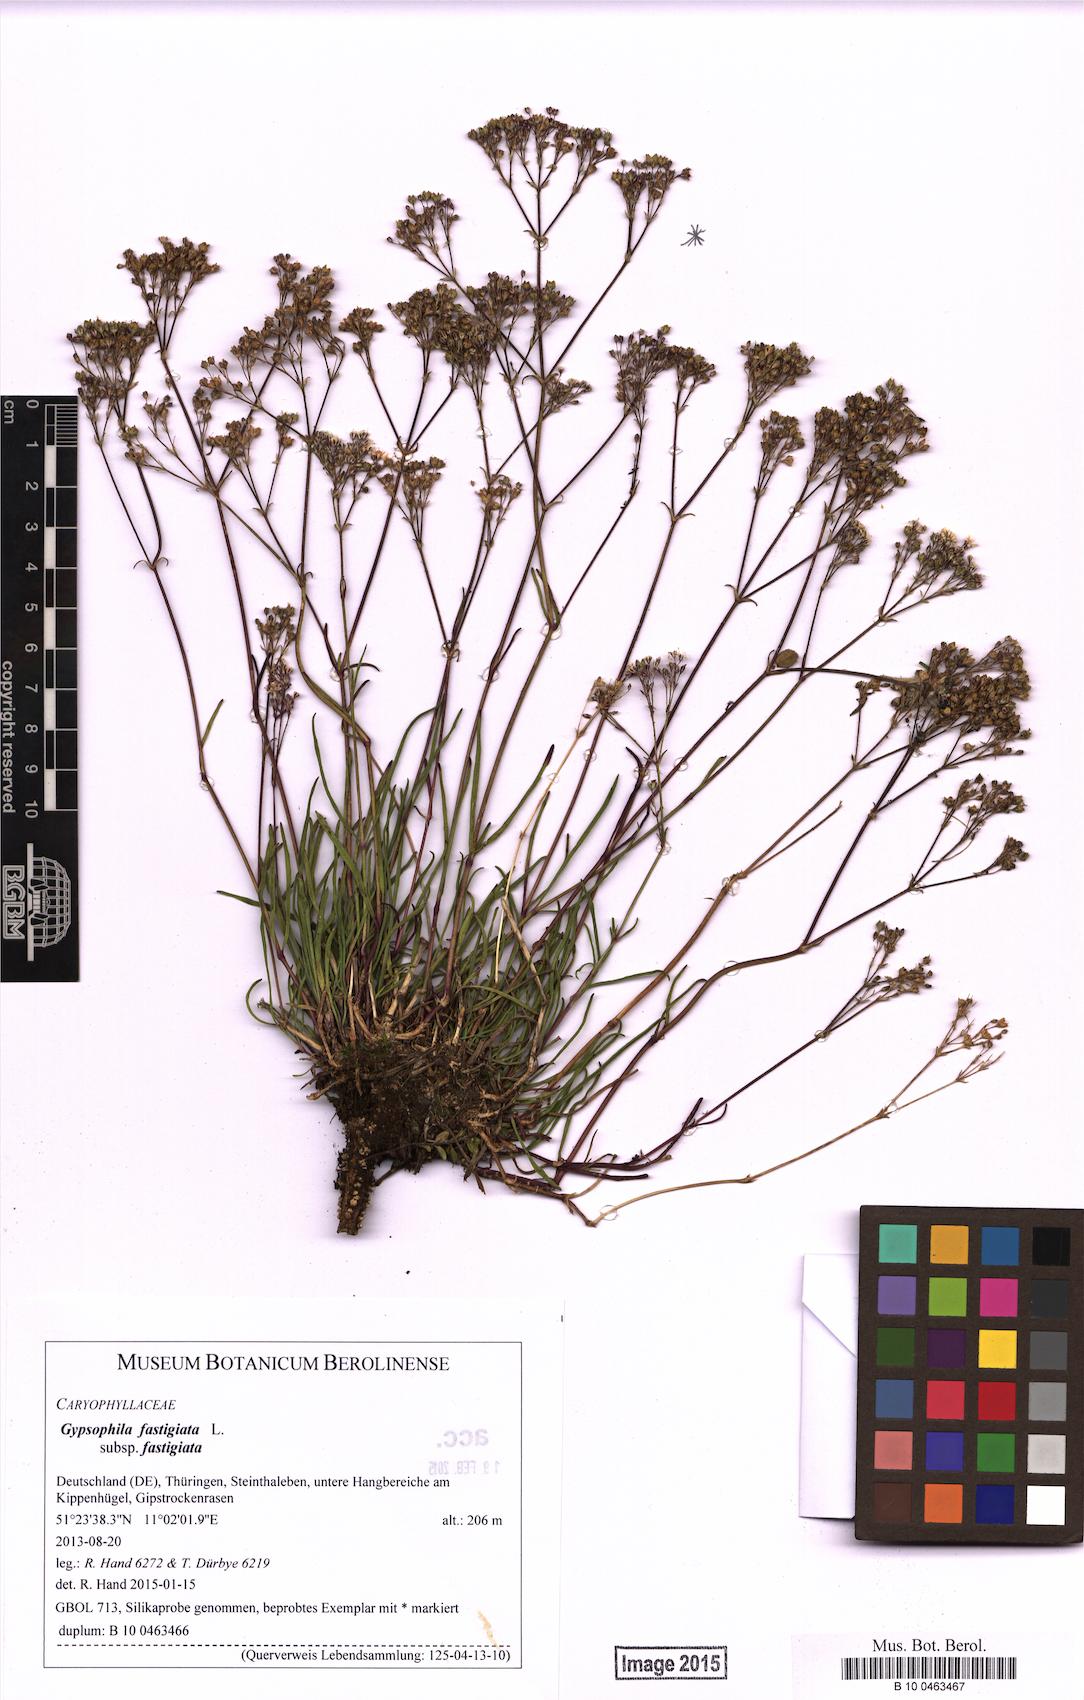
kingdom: Plantae
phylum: Tracheophyta
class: Magnoliopsida
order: Caryophyllales
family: Caryophyllaceae
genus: Gypsophila
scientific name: Gypsophila fastigiata
